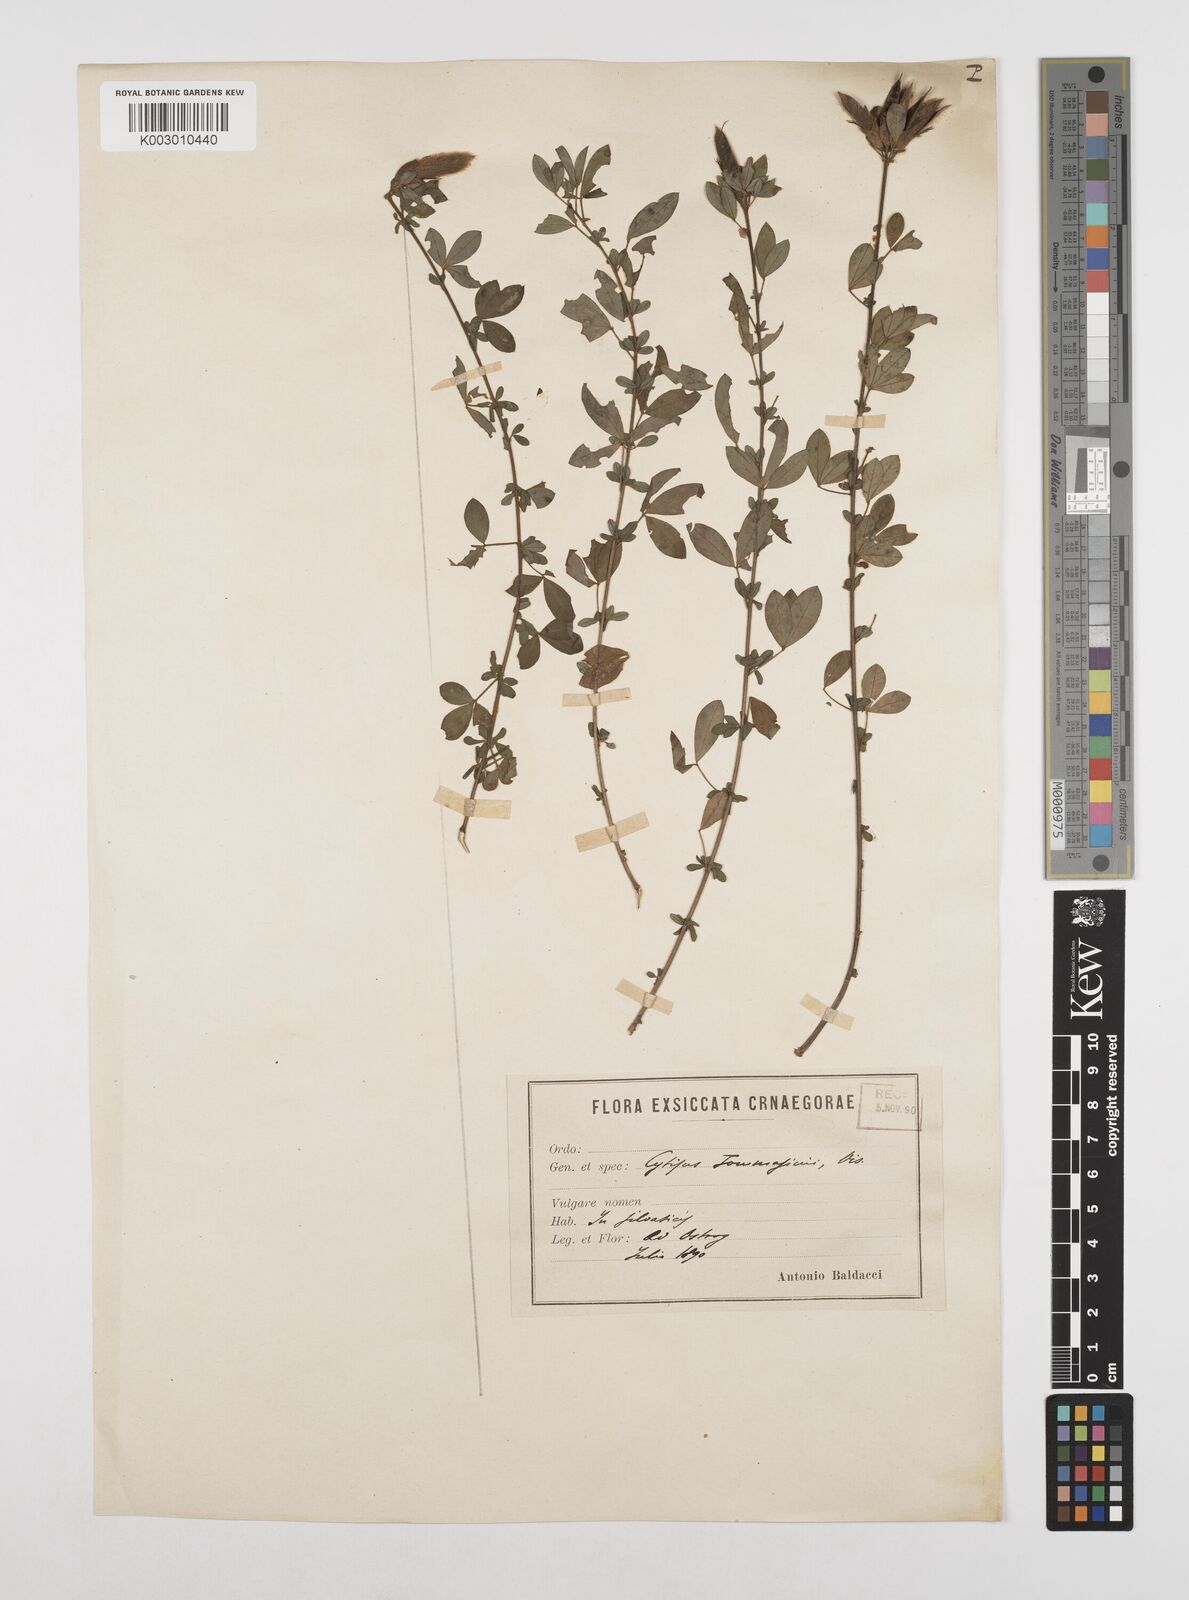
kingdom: Plantae
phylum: Tracheophyta
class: Magnoliopsida
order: Fabales
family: Fabaceae
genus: Chamaecytisus
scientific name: Chamaecytisus tommasinii
